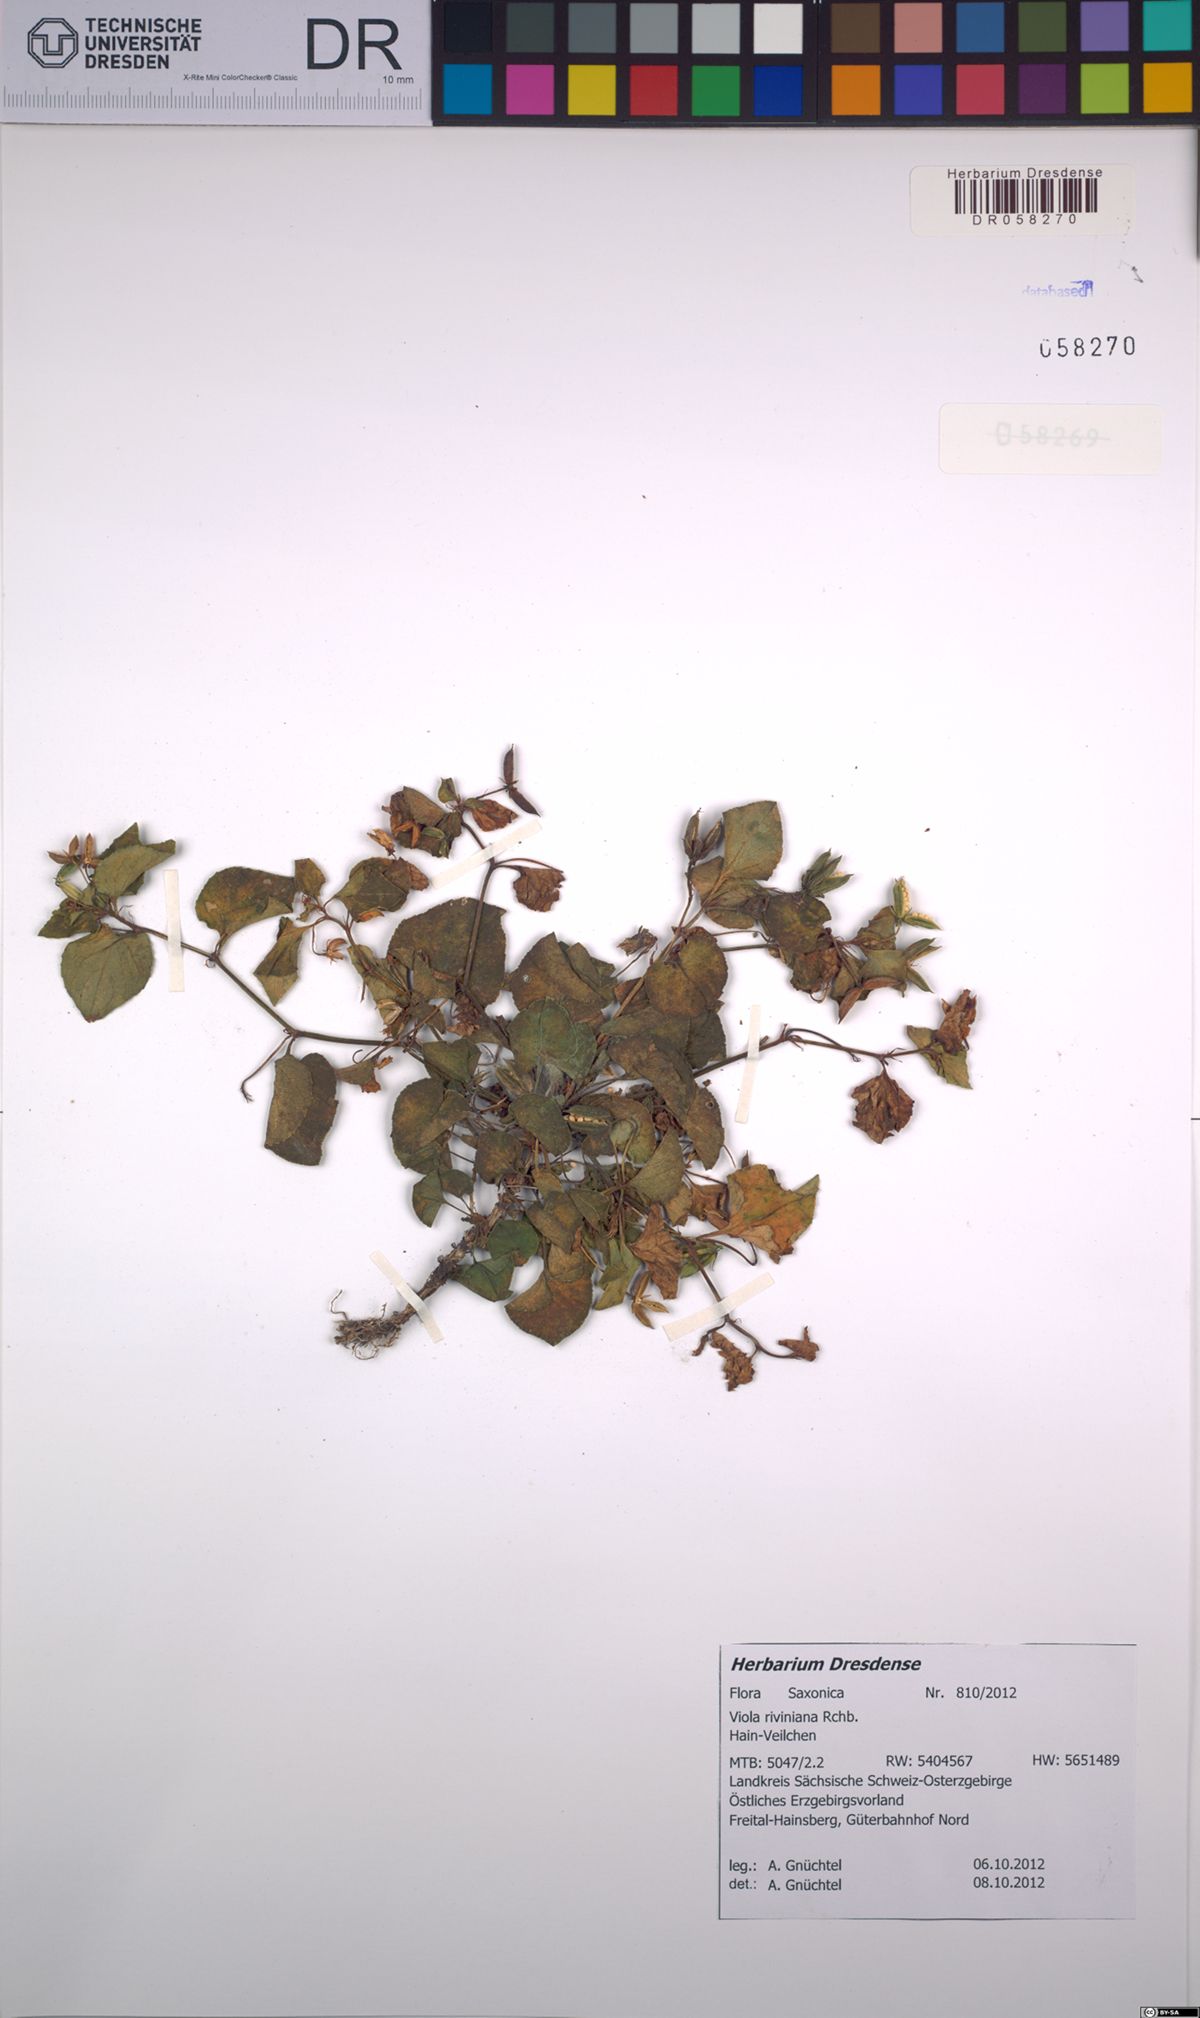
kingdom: Plantae
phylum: Tracheophyta
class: Magnoliopsida
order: Malpighiales
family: Violaceae
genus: Viola
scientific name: Viola riviniana
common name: Common dog-violet
